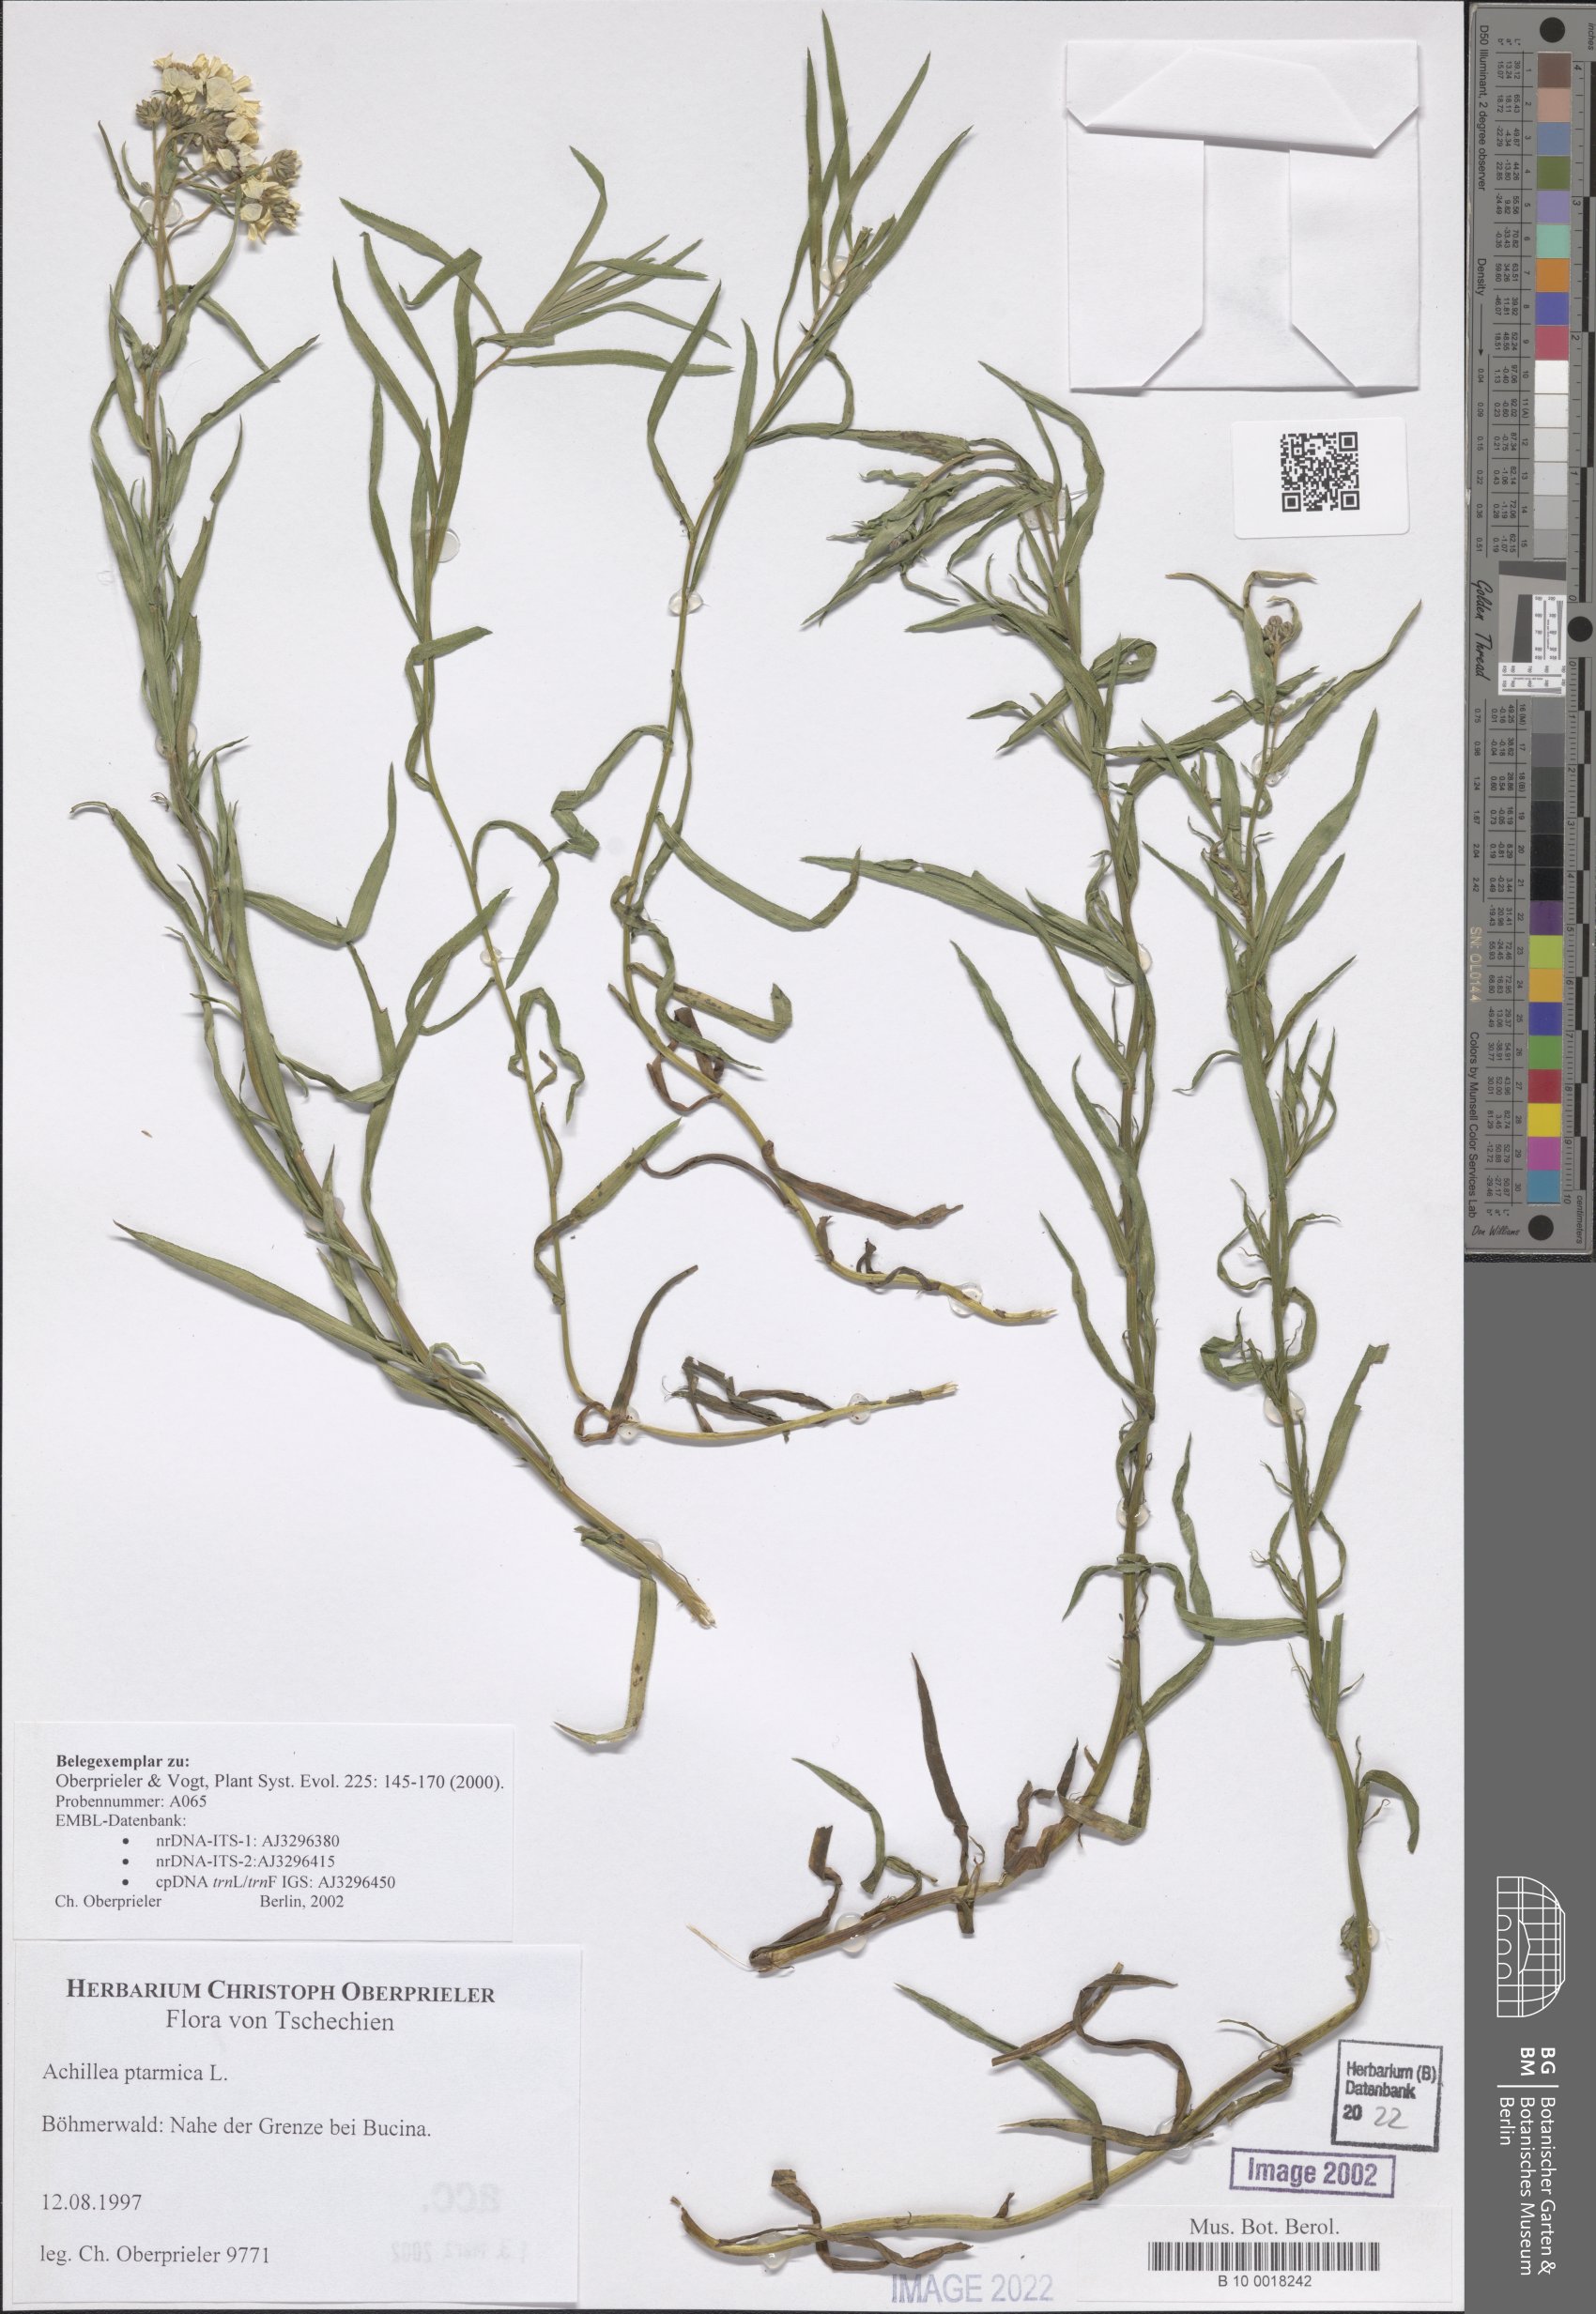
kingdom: Plantae
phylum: Tracheophyta
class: Magnoliopsida
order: Asterales
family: Asteraceae
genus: Achillea
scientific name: Achillea ptarmica
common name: Sneezeweed
